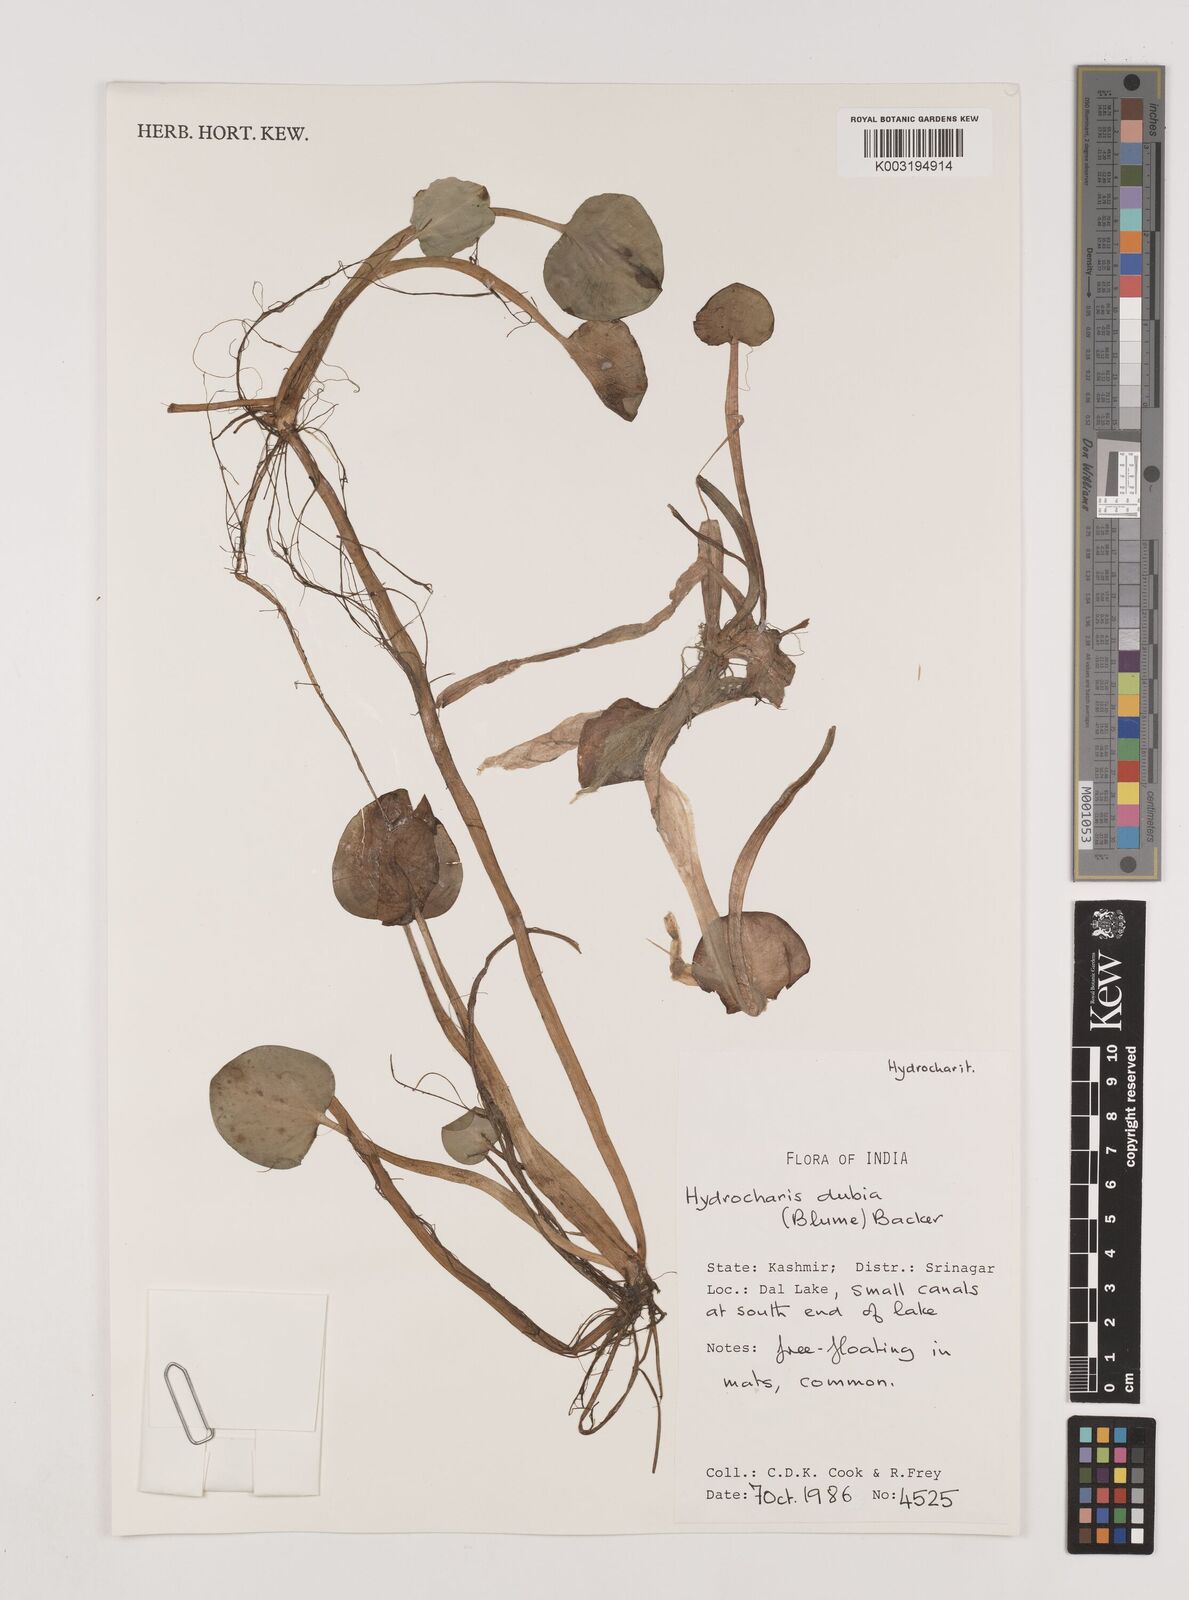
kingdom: Plantae
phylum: Tracheophyta
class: Liliopsida
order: Alismatales
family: Hydrocharitaceae
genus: Hydrocharis
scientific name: Hydrocharis dubia
